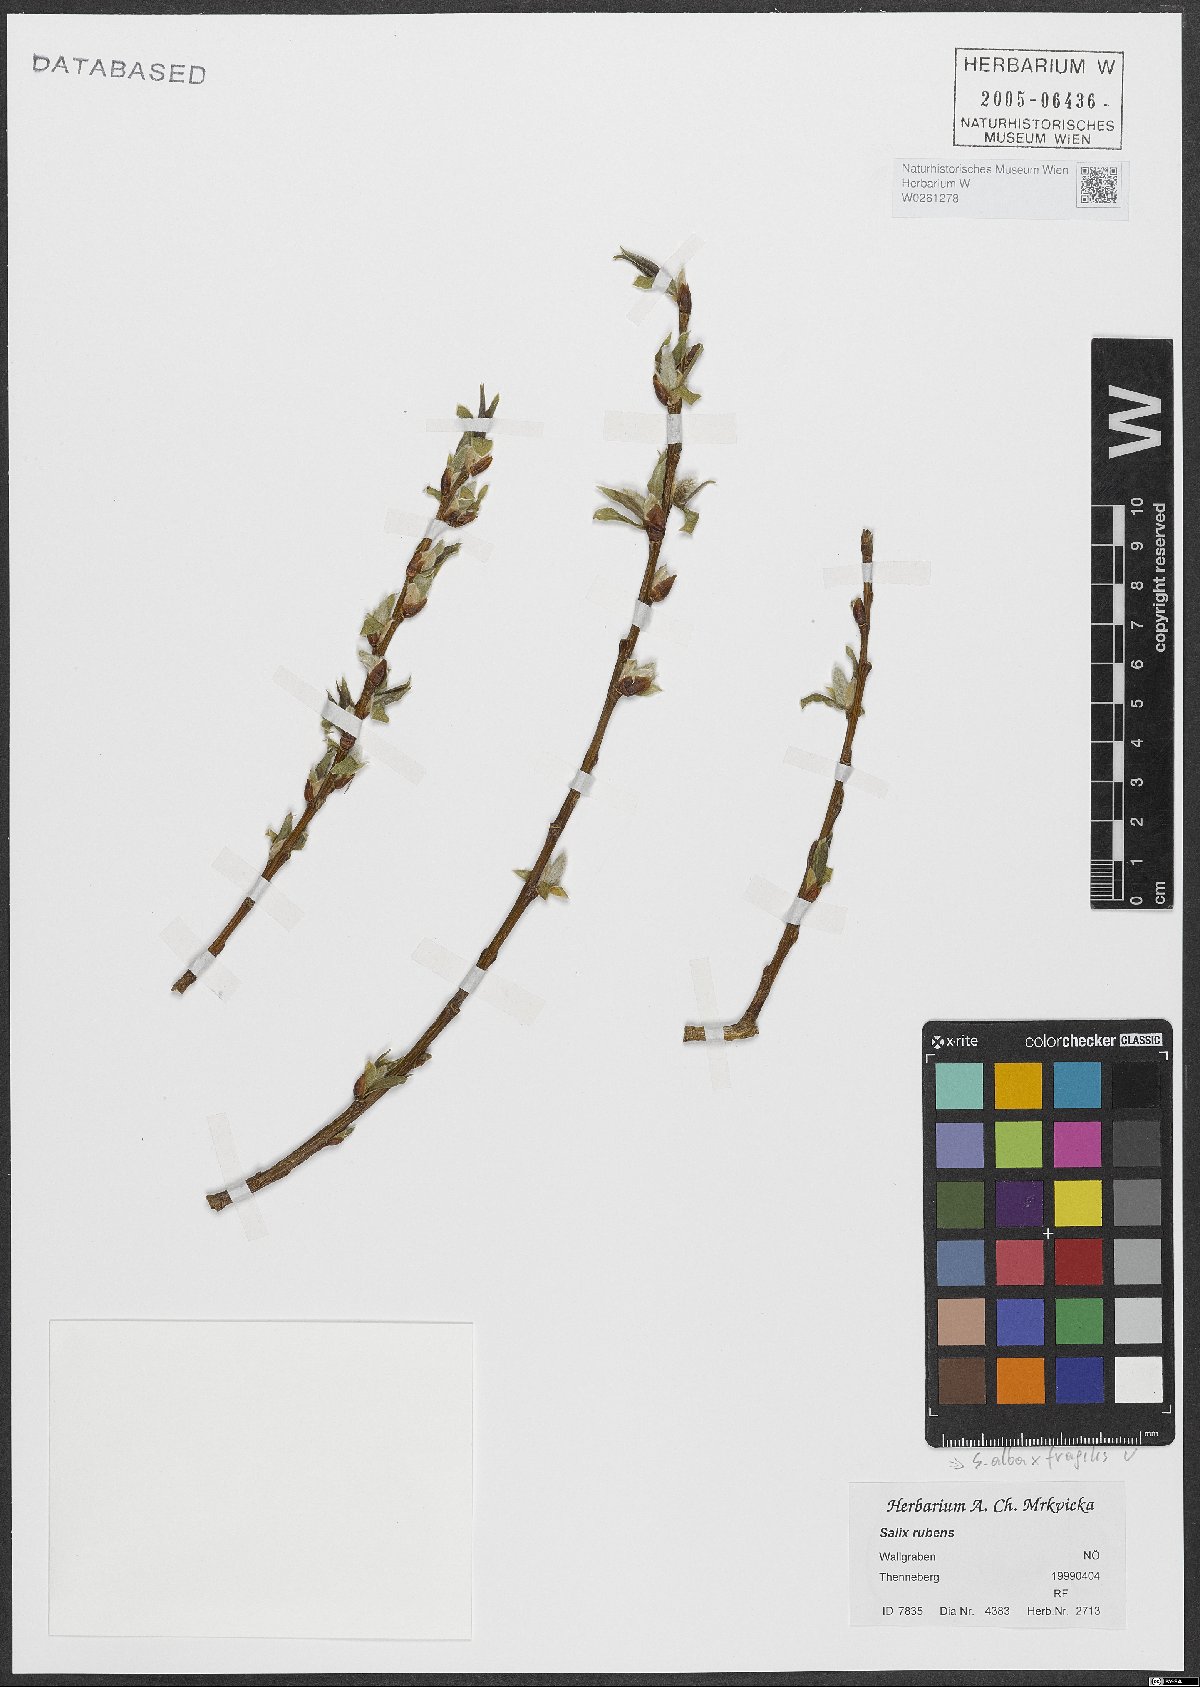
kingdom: Plantae
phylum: Tracheophyta
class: Magnoliopsida
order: Malpighiales
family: Salicaceae
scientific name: Salicaceae
